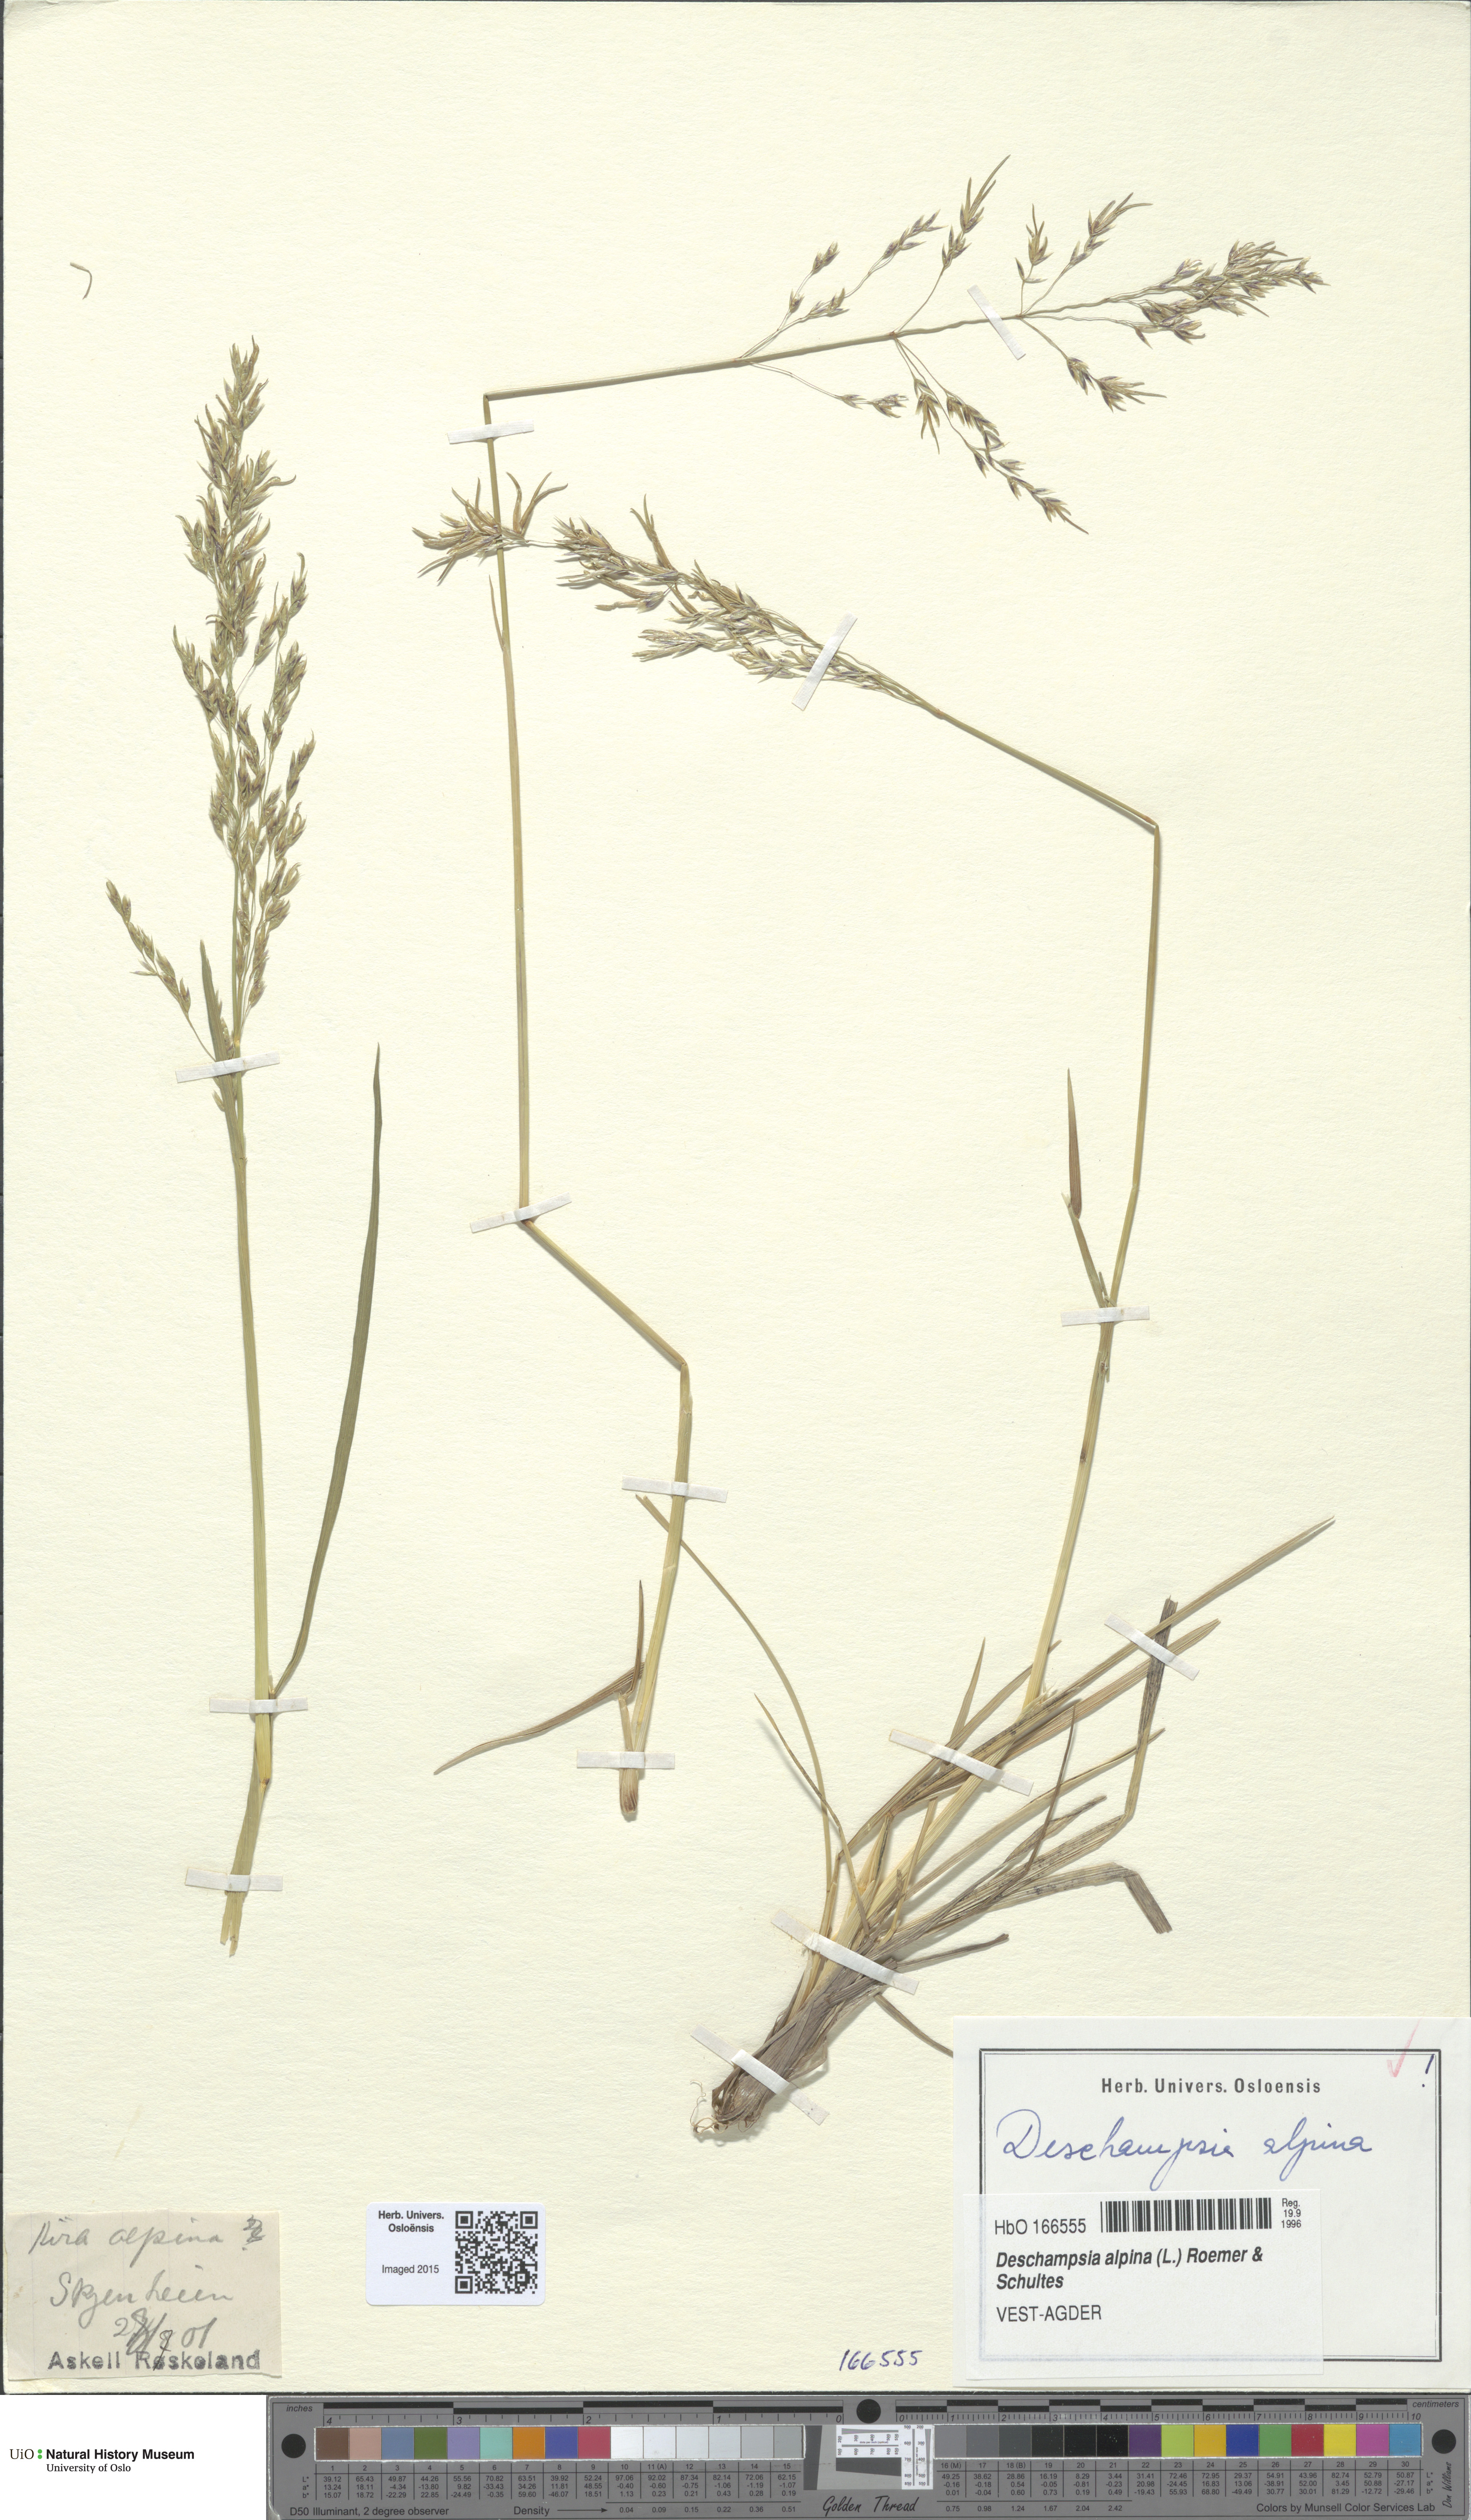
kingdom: Plantae
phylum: Tracheophyta
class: Liliopsida
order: Poales
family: Poaceae
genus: Deschampsia
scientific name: Deschampsia cespitosa
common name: Tufted hair-grass
